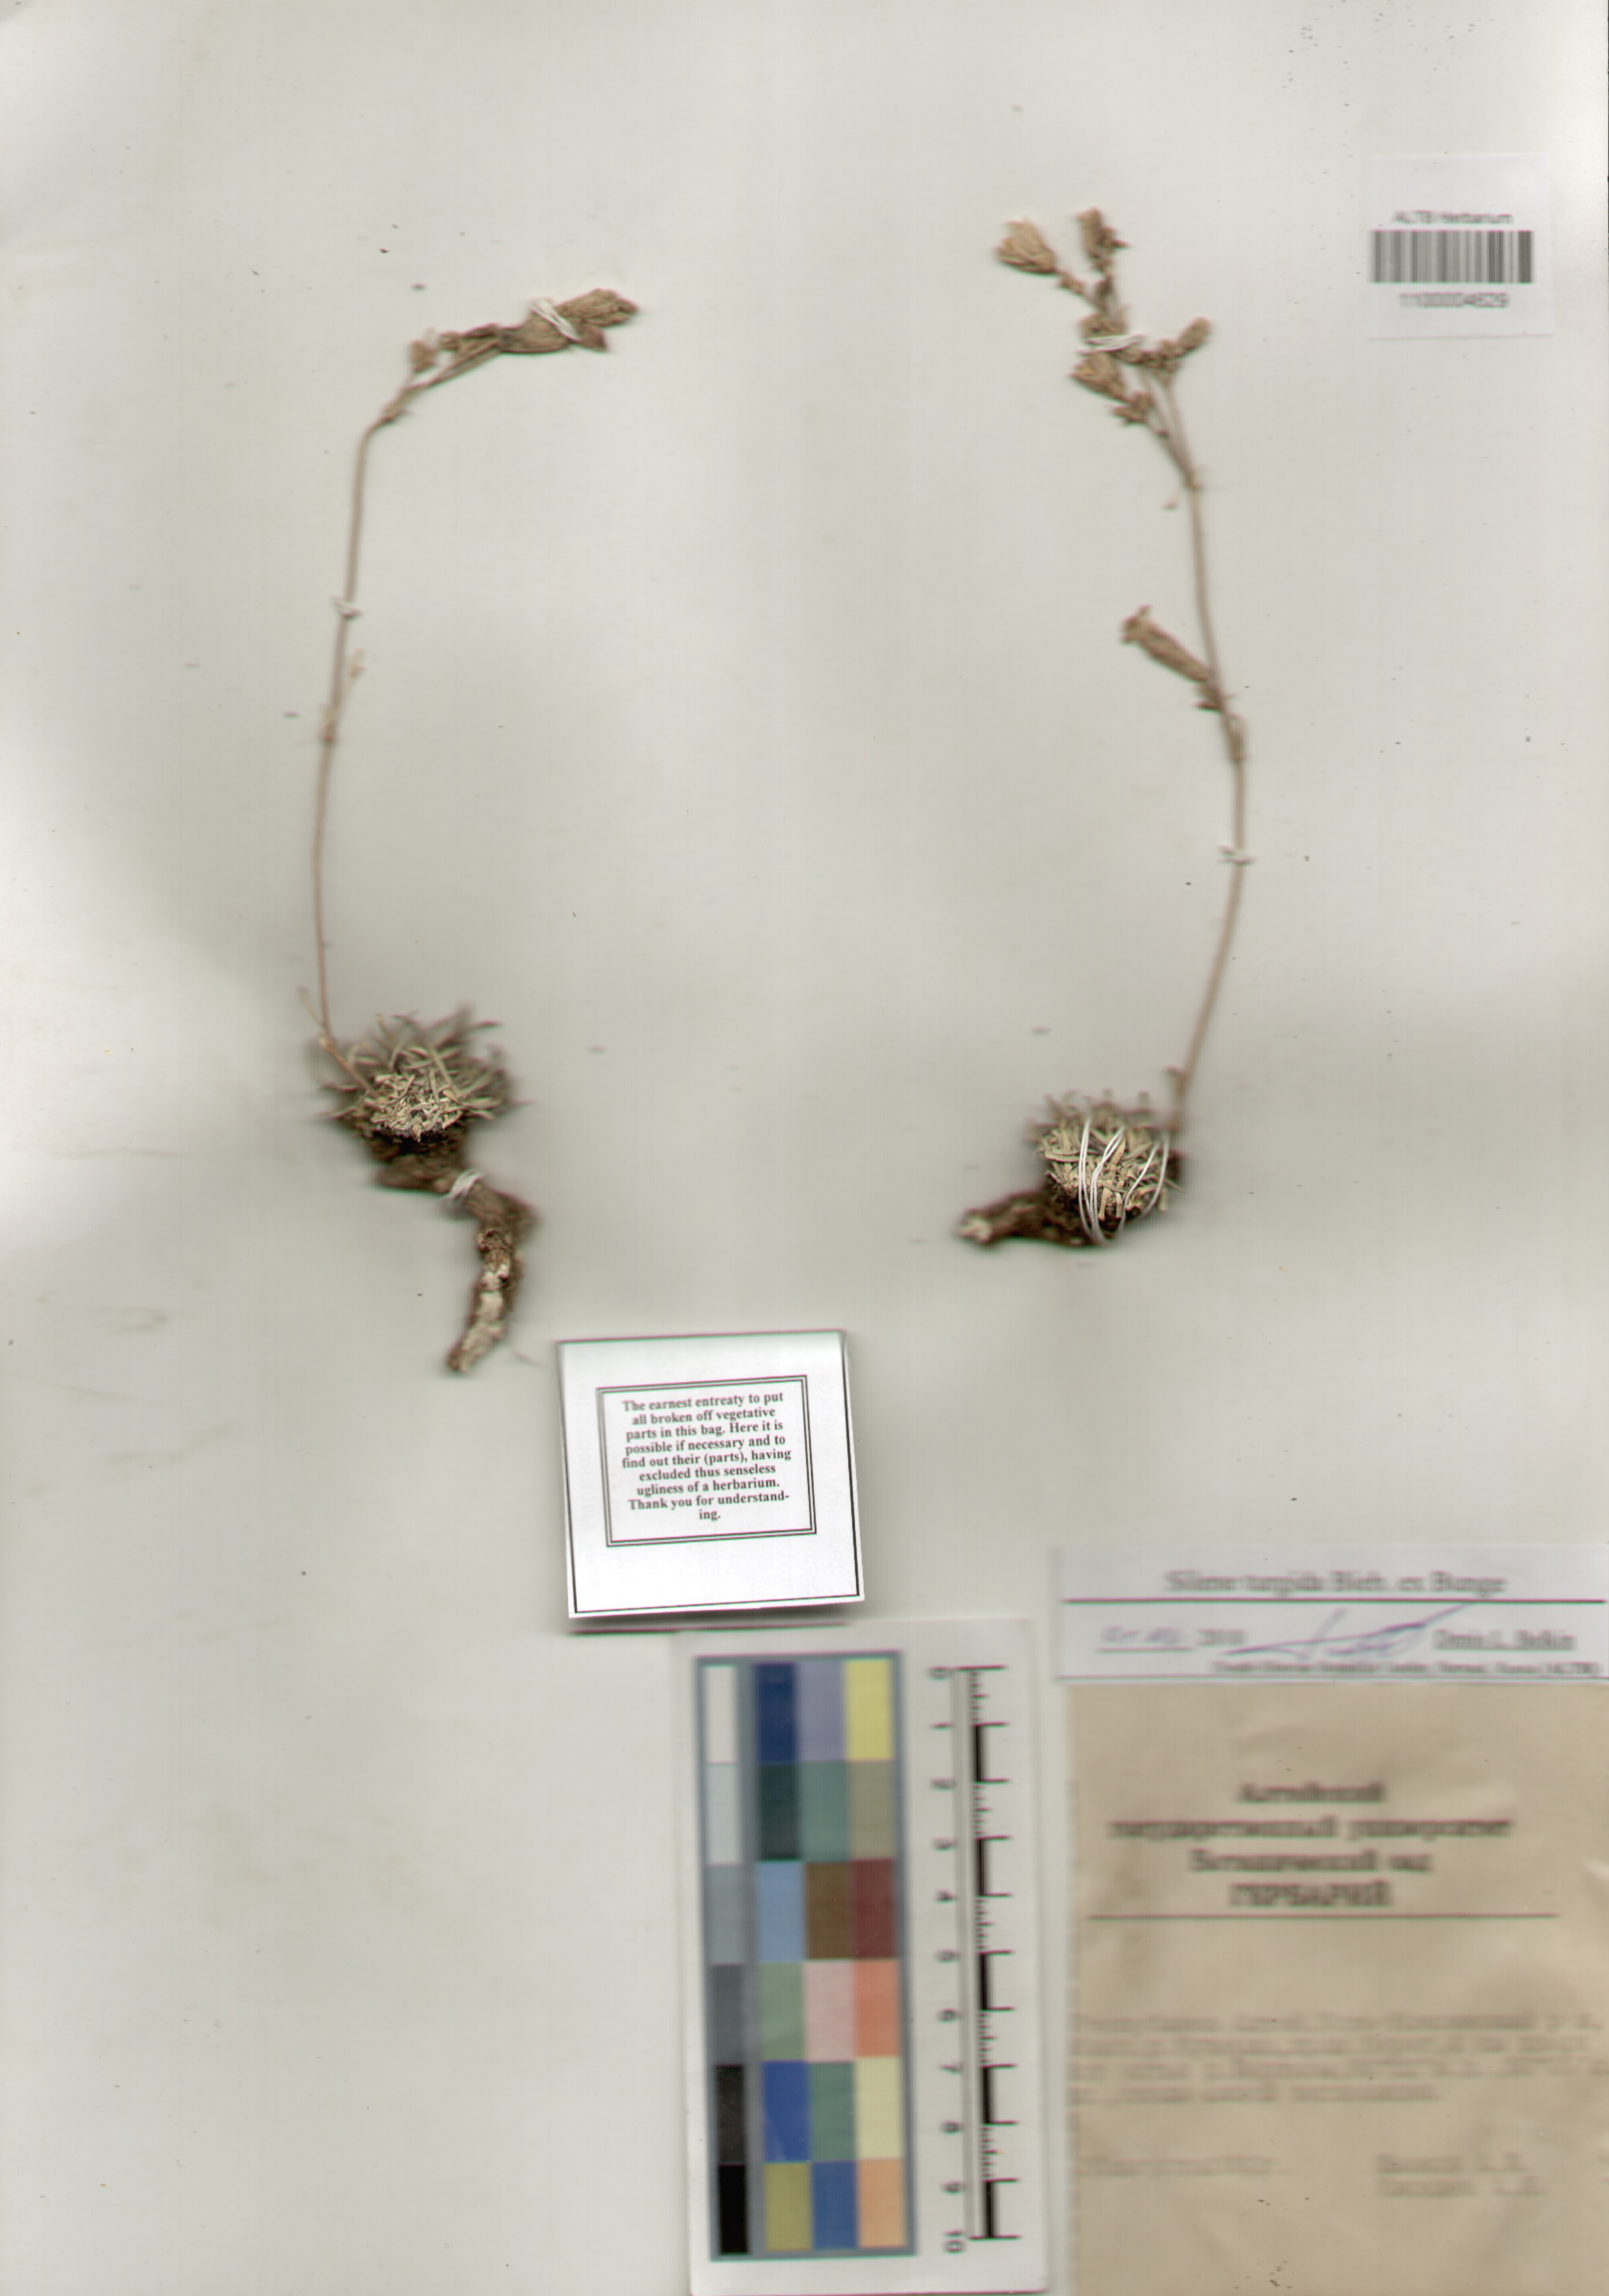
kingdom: Plantae
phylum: Tracheophyta
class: Magnoliopsida
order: Caryophyllales
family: Caryophyllaceae
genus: Silene
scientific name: Silene turgida
